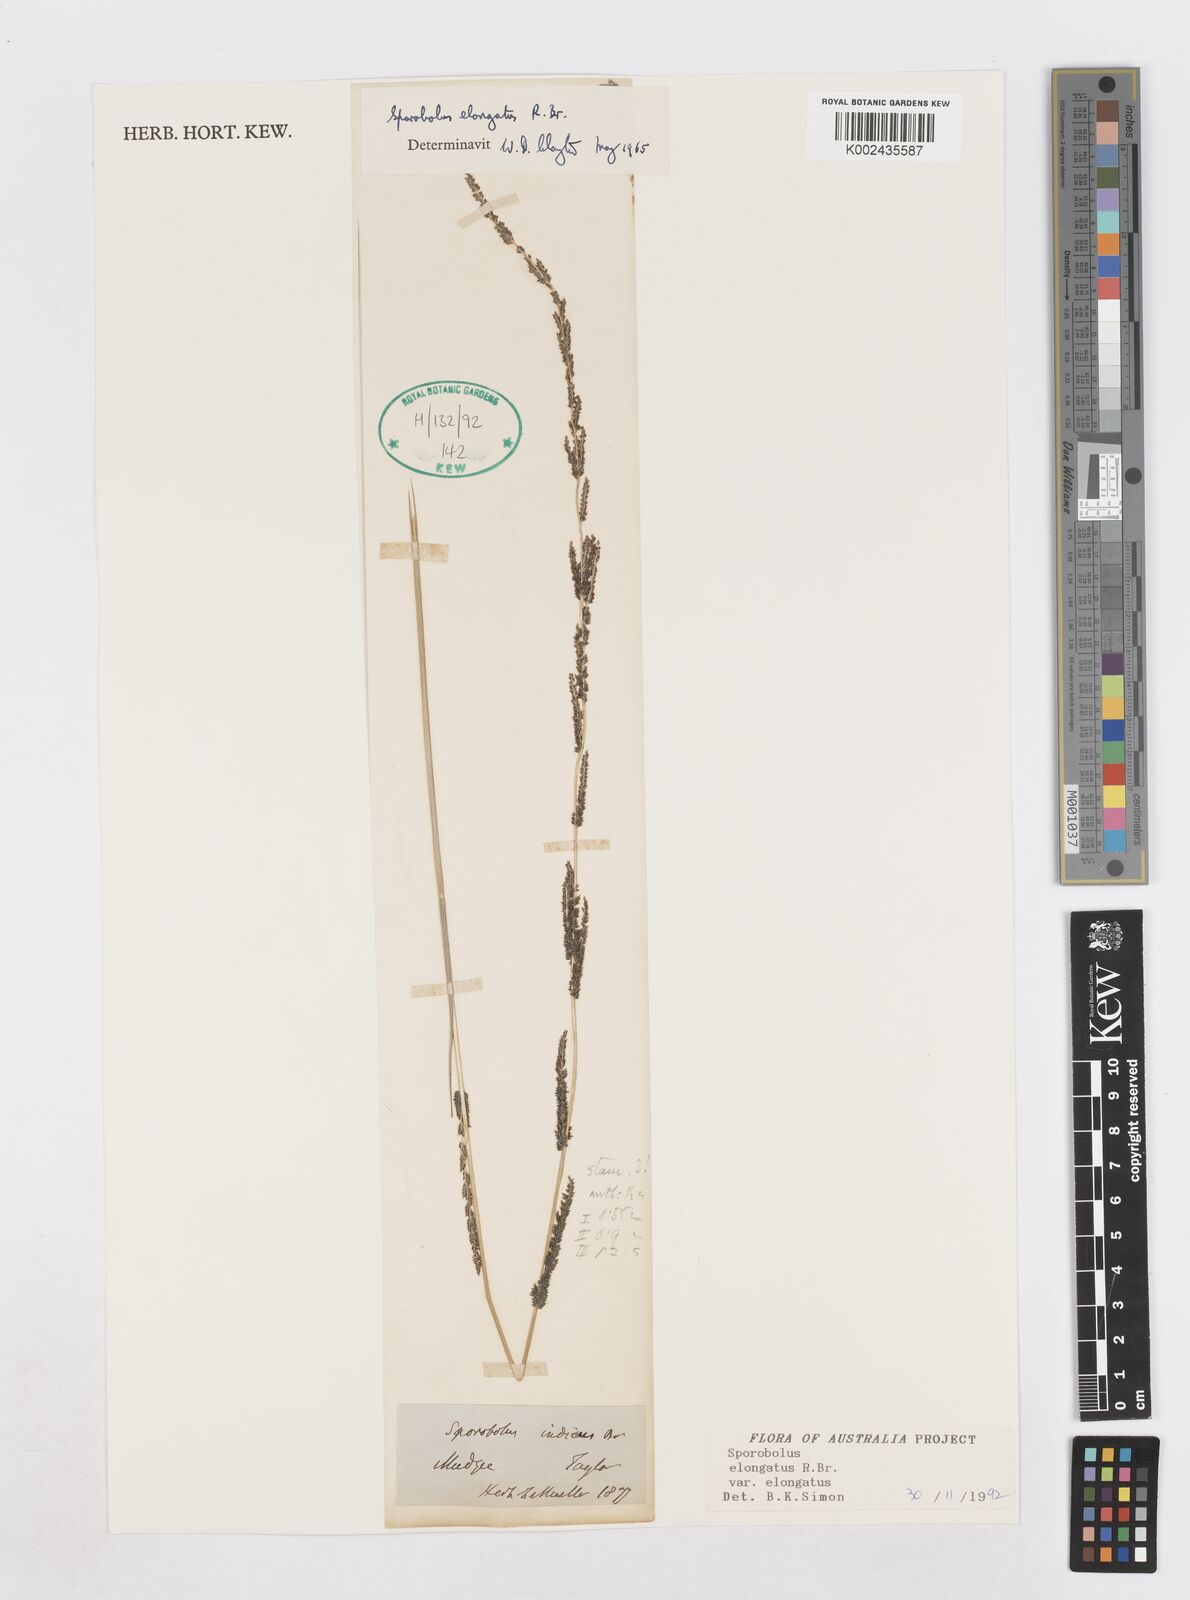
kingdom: Plantae
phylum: Tracheophyta
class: Liliopsida
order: Poales
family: Poaceae
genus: Sporobolus
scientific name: Sporobolus elongatus
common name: Rat tail grass
